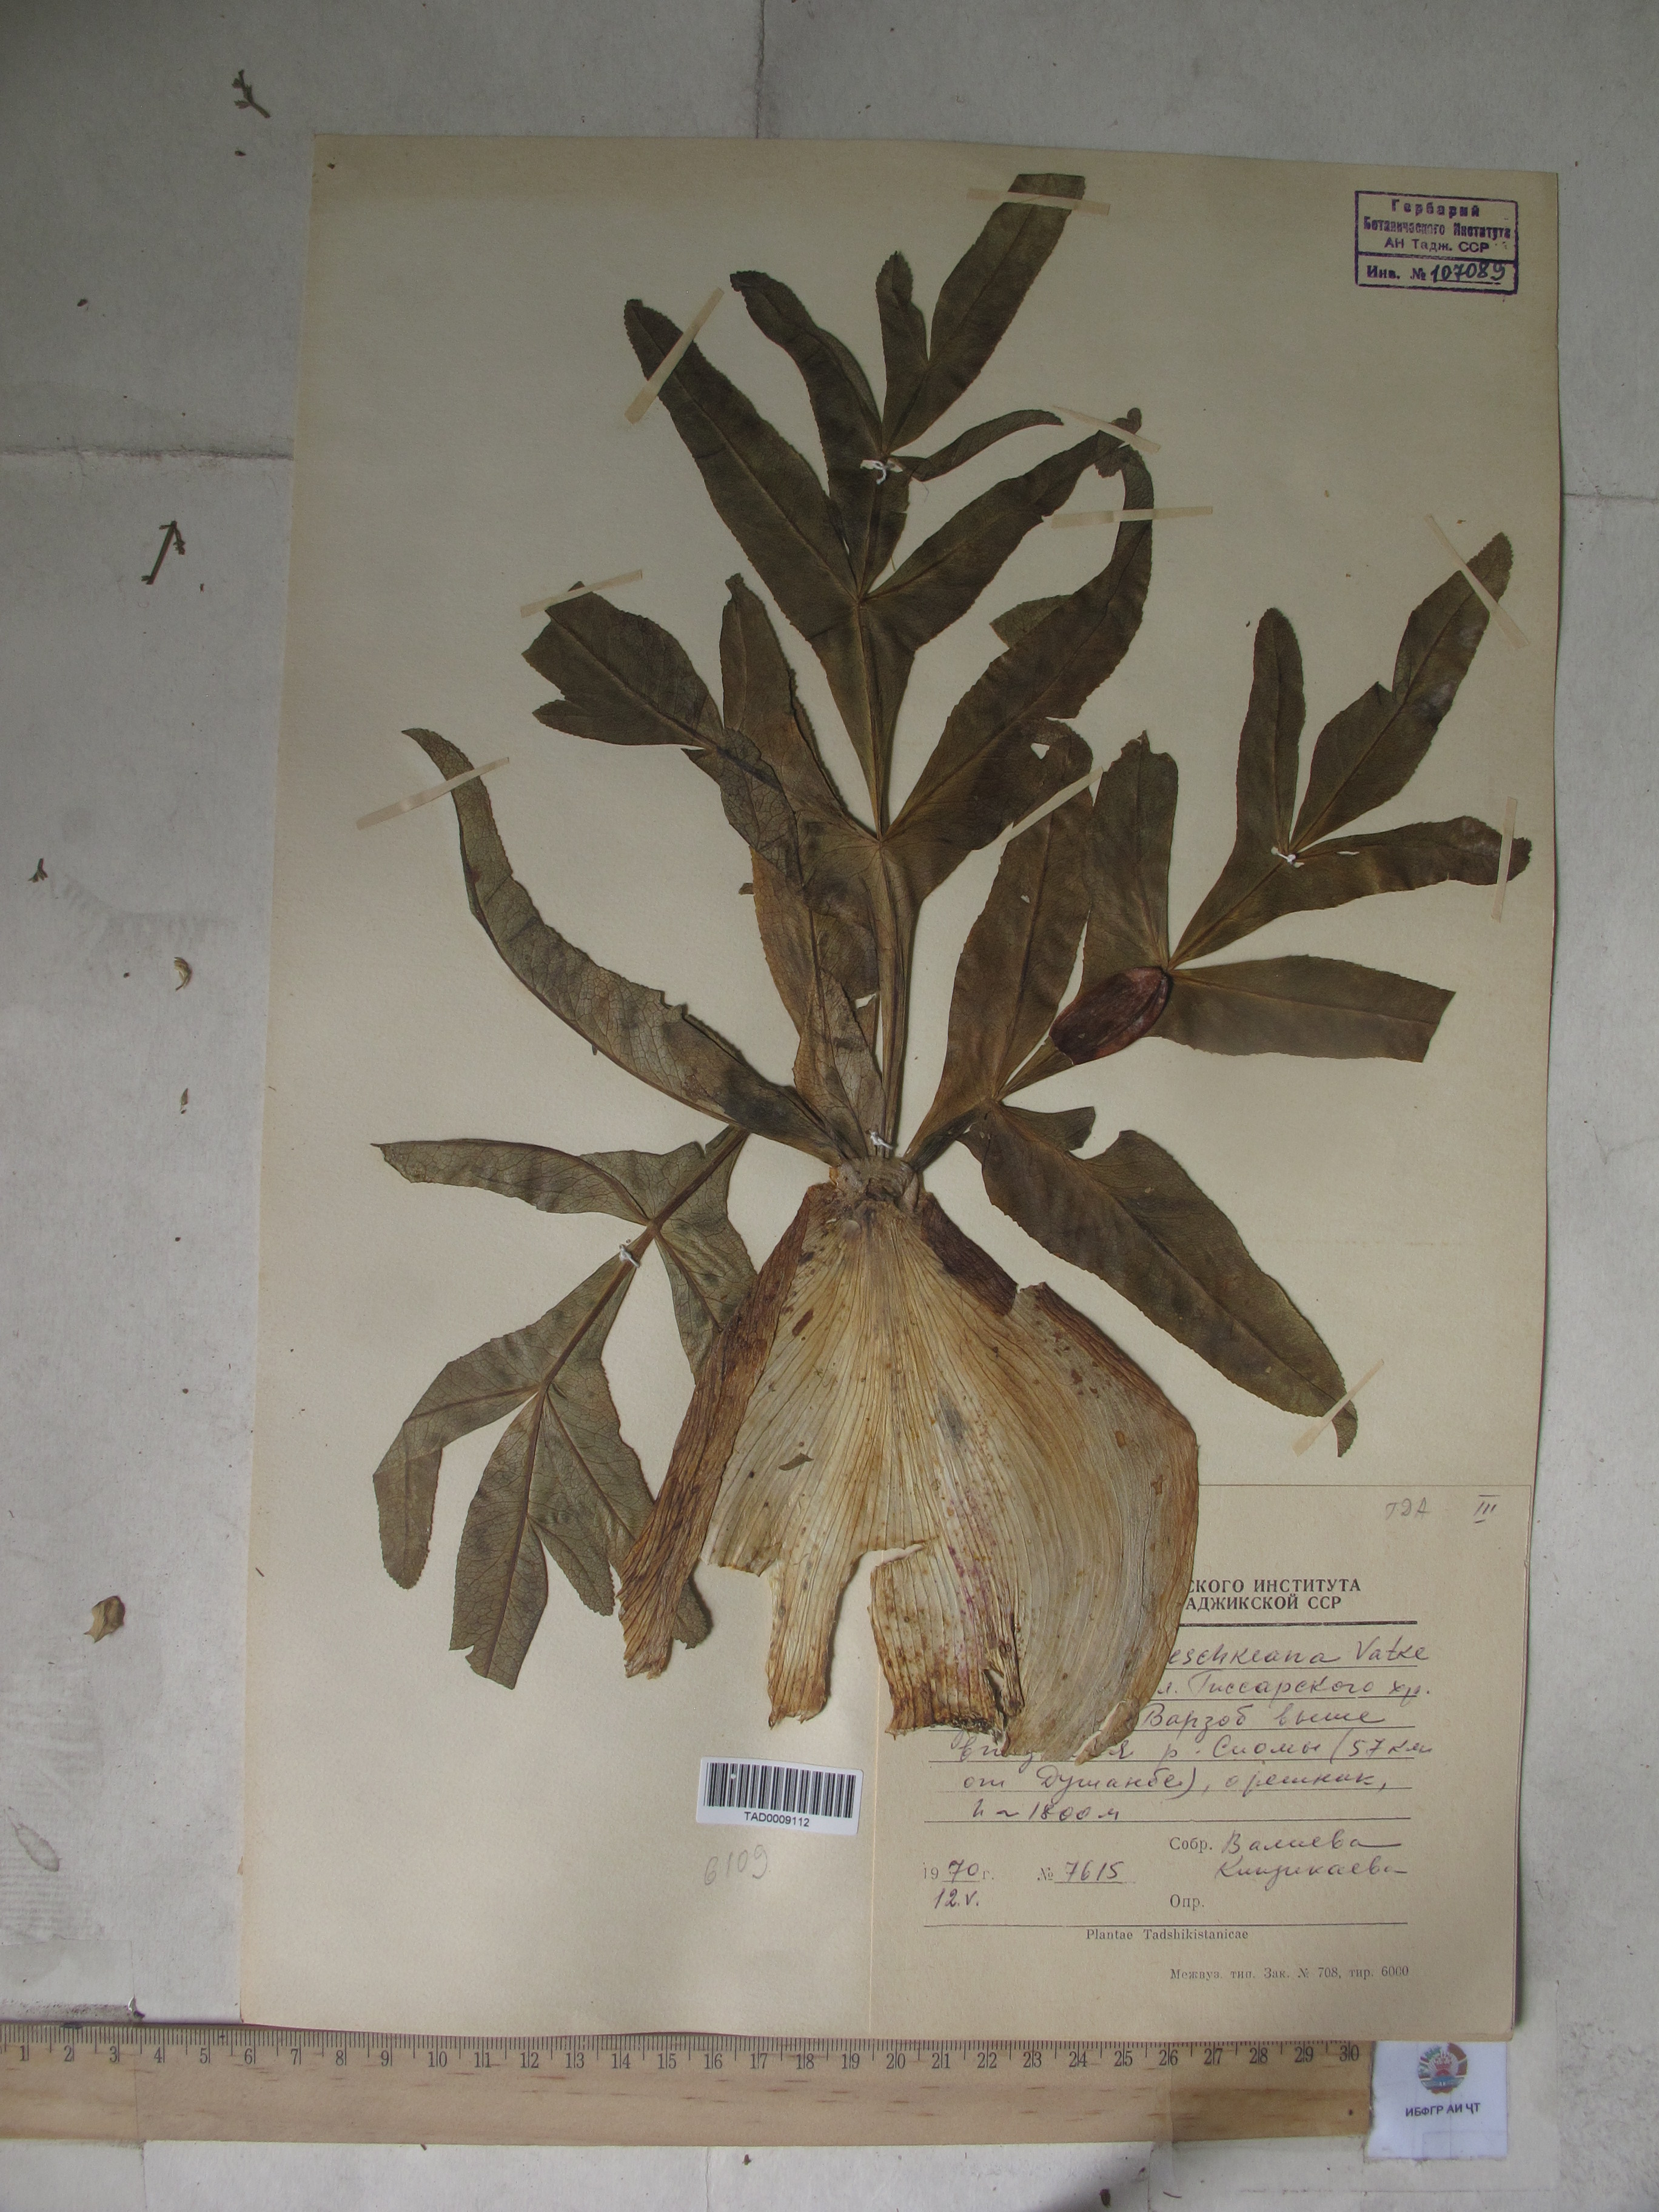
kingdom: Plantae
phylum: Tracheophyta
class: Magnoliopsida
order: Apiales
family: Apiaceae
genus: Ferula
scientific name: Ferula jaeschkeana
